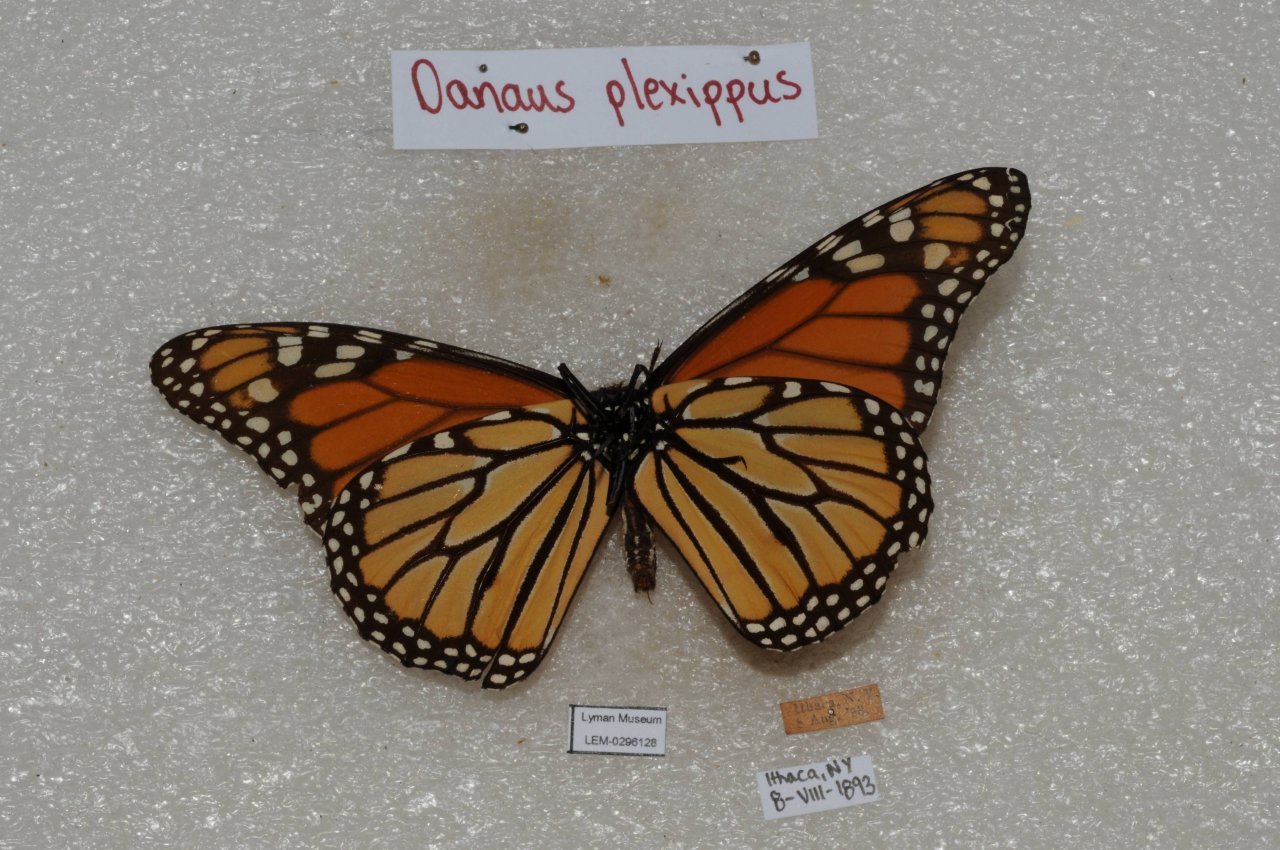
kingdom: Animalia
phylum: Arthropoda
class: Insecta
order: Lepidoptera
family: Nymphalidae
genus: Danaus
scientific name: Danaus plexippus
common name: Monarch
